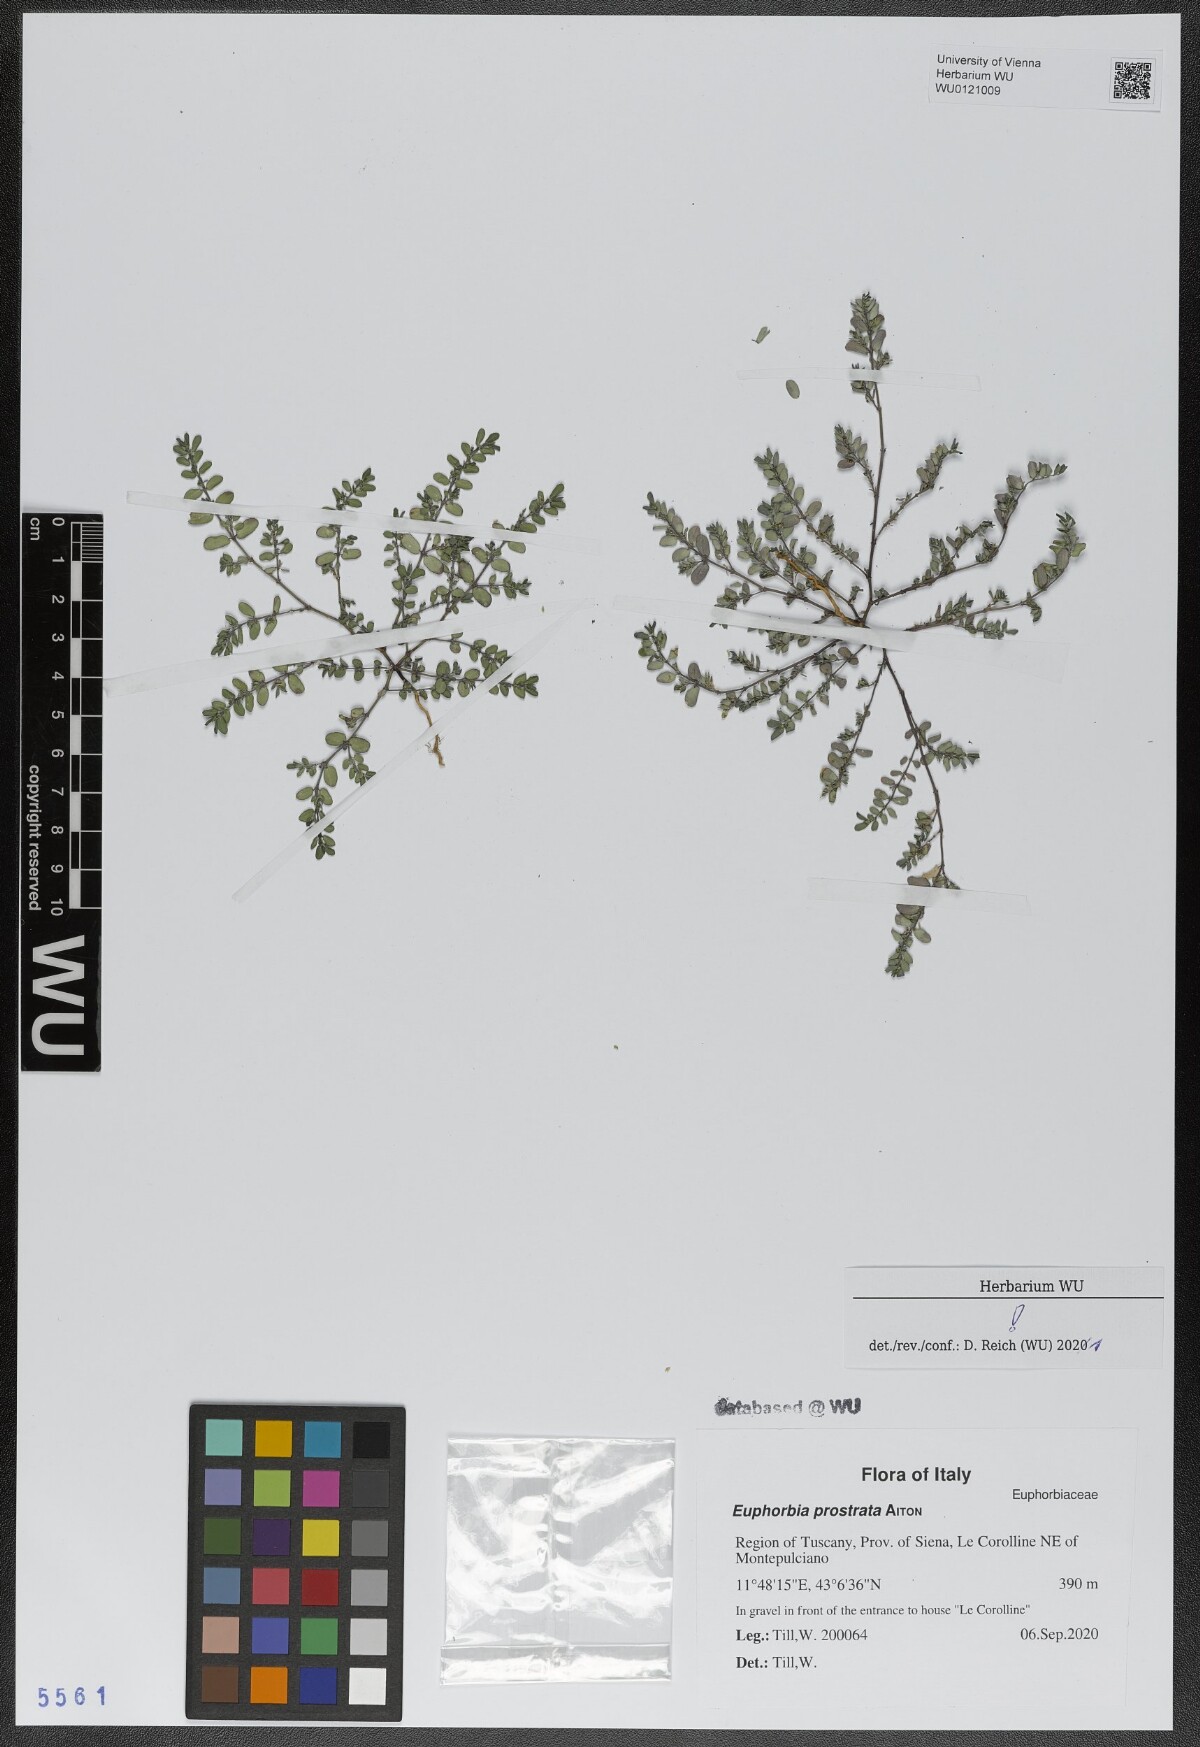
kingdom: Plantae
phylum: Tracheophyta
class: Magnoliopsida
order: Malpighiales
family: Euphorbiaceae
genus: Euphorbia
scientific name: Euphorbia prostrata
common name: Prostrate sandmat
